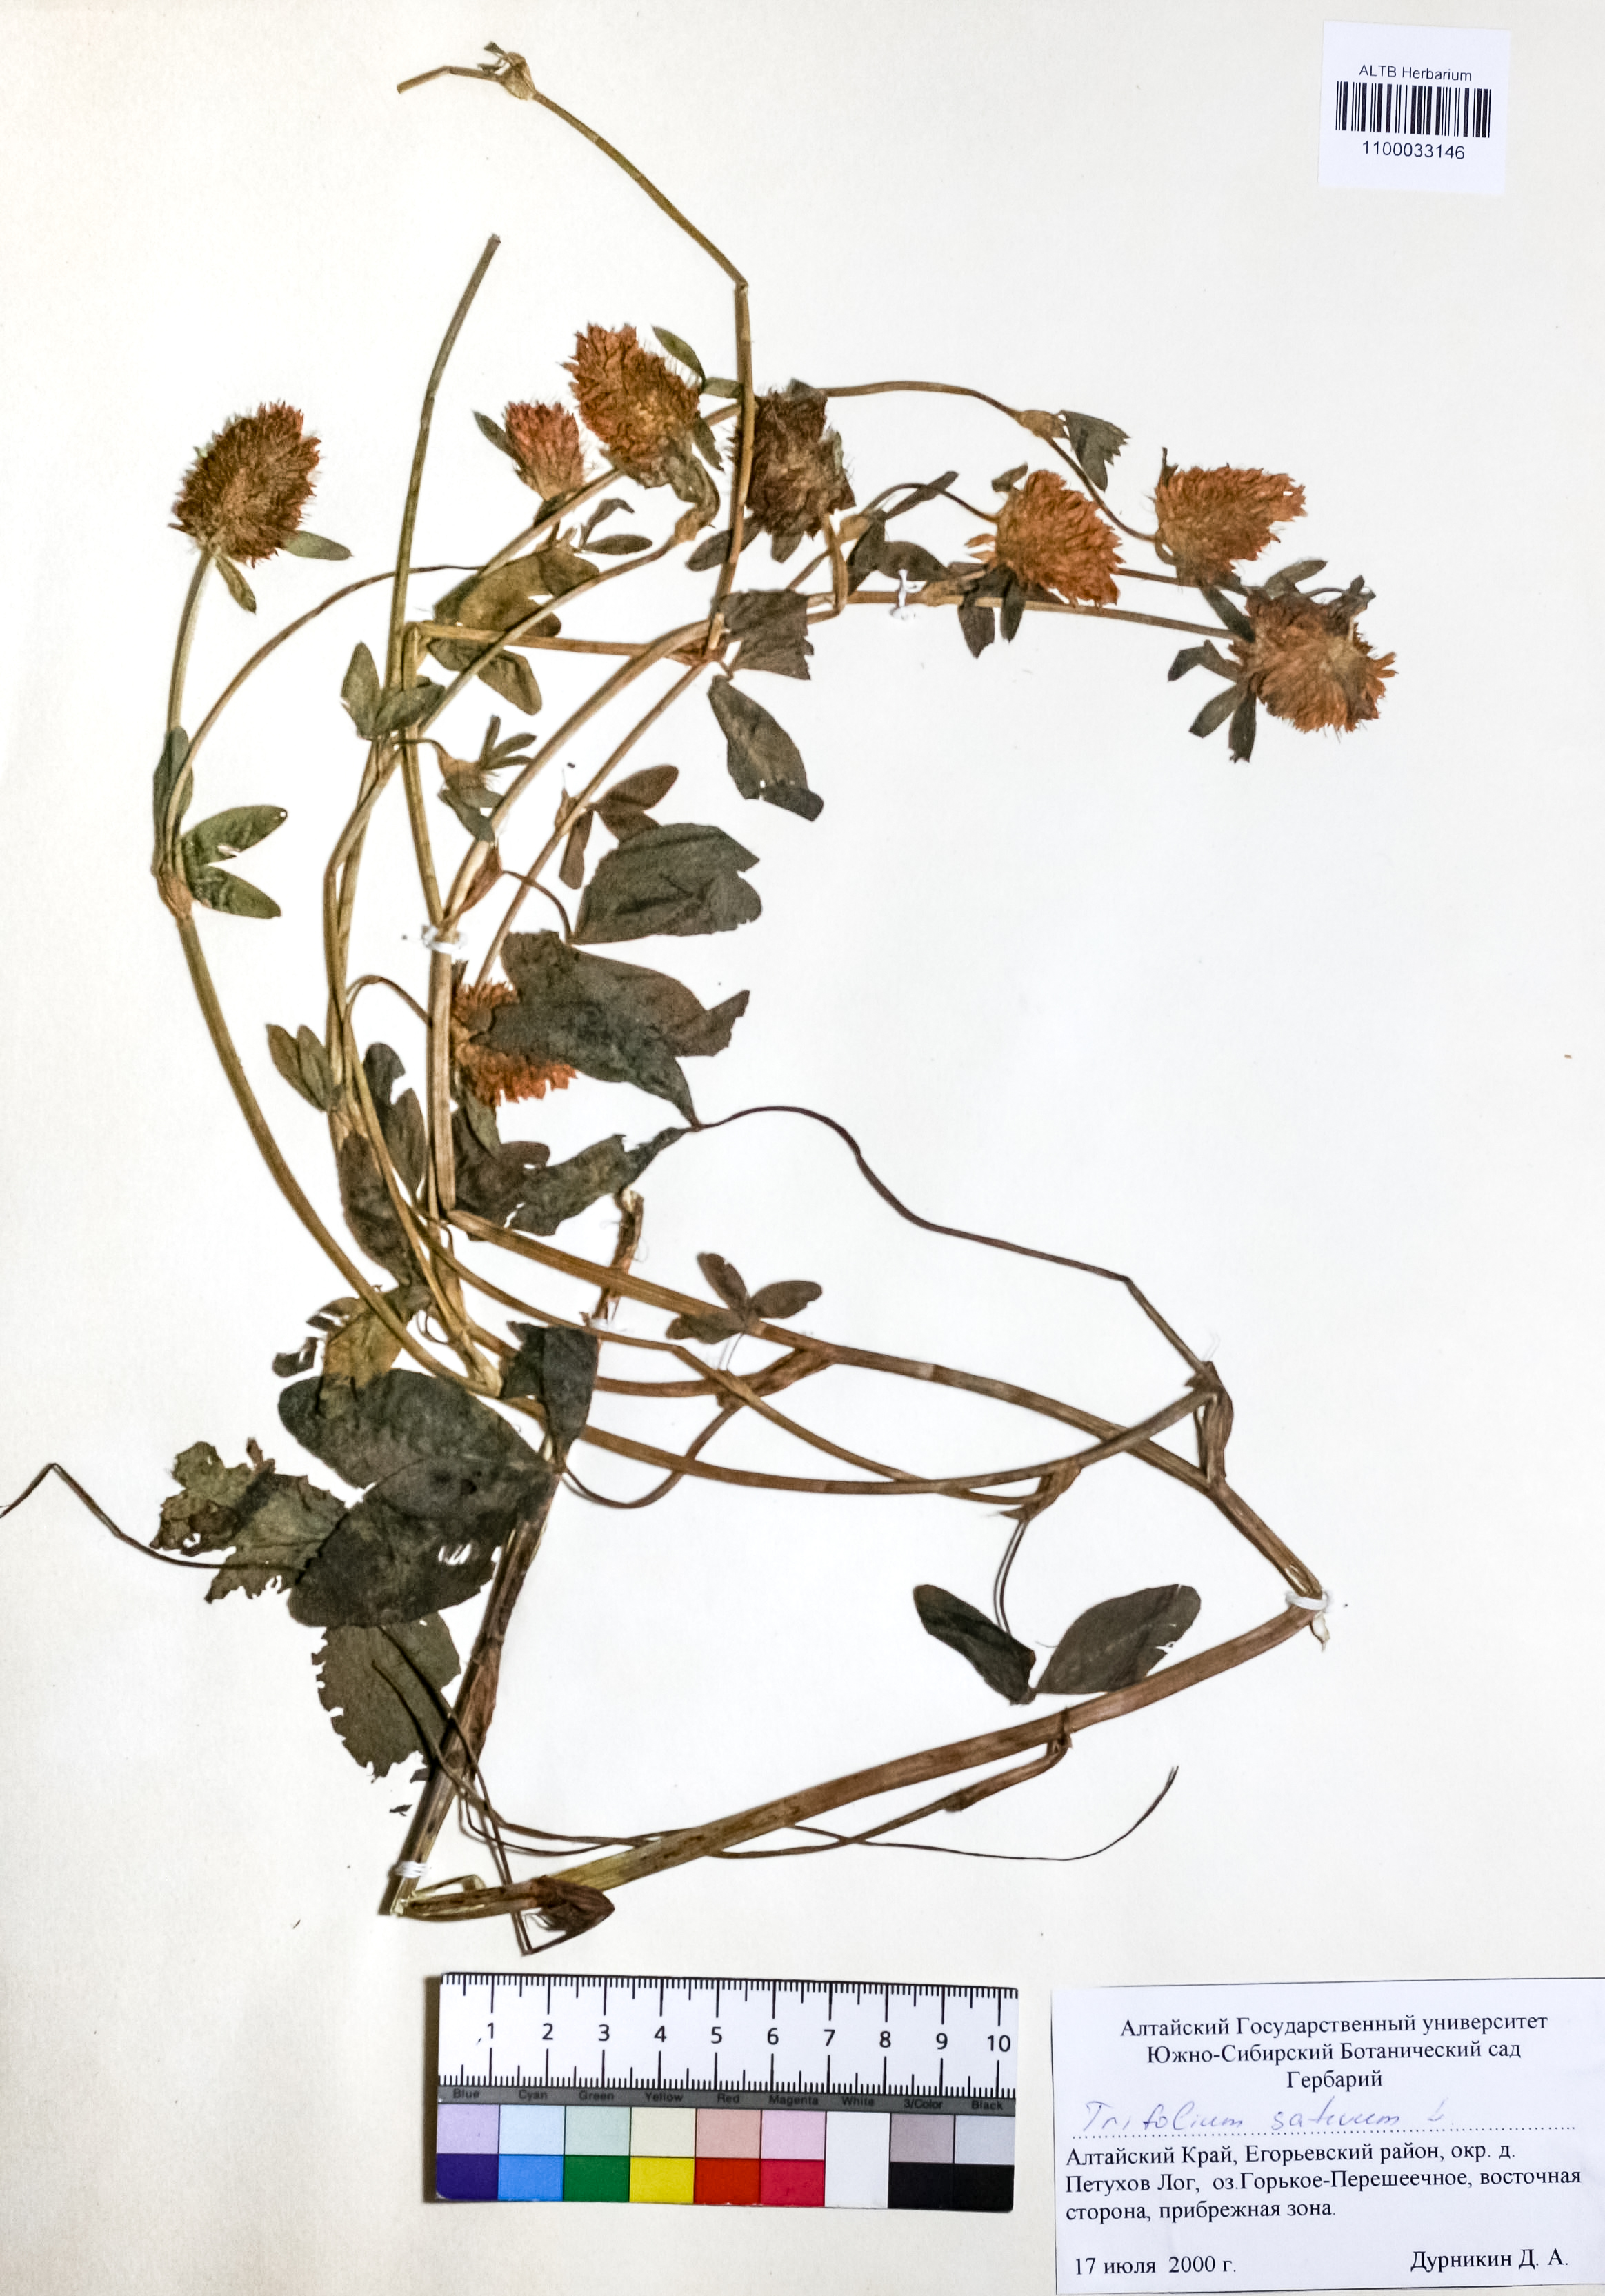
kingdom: Plantae
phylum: Tracheophyta
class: Magnoliopsida
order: Fabales
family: Fabaceae
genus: Trifolium
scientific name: Trifolium pratense
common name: Red clover
